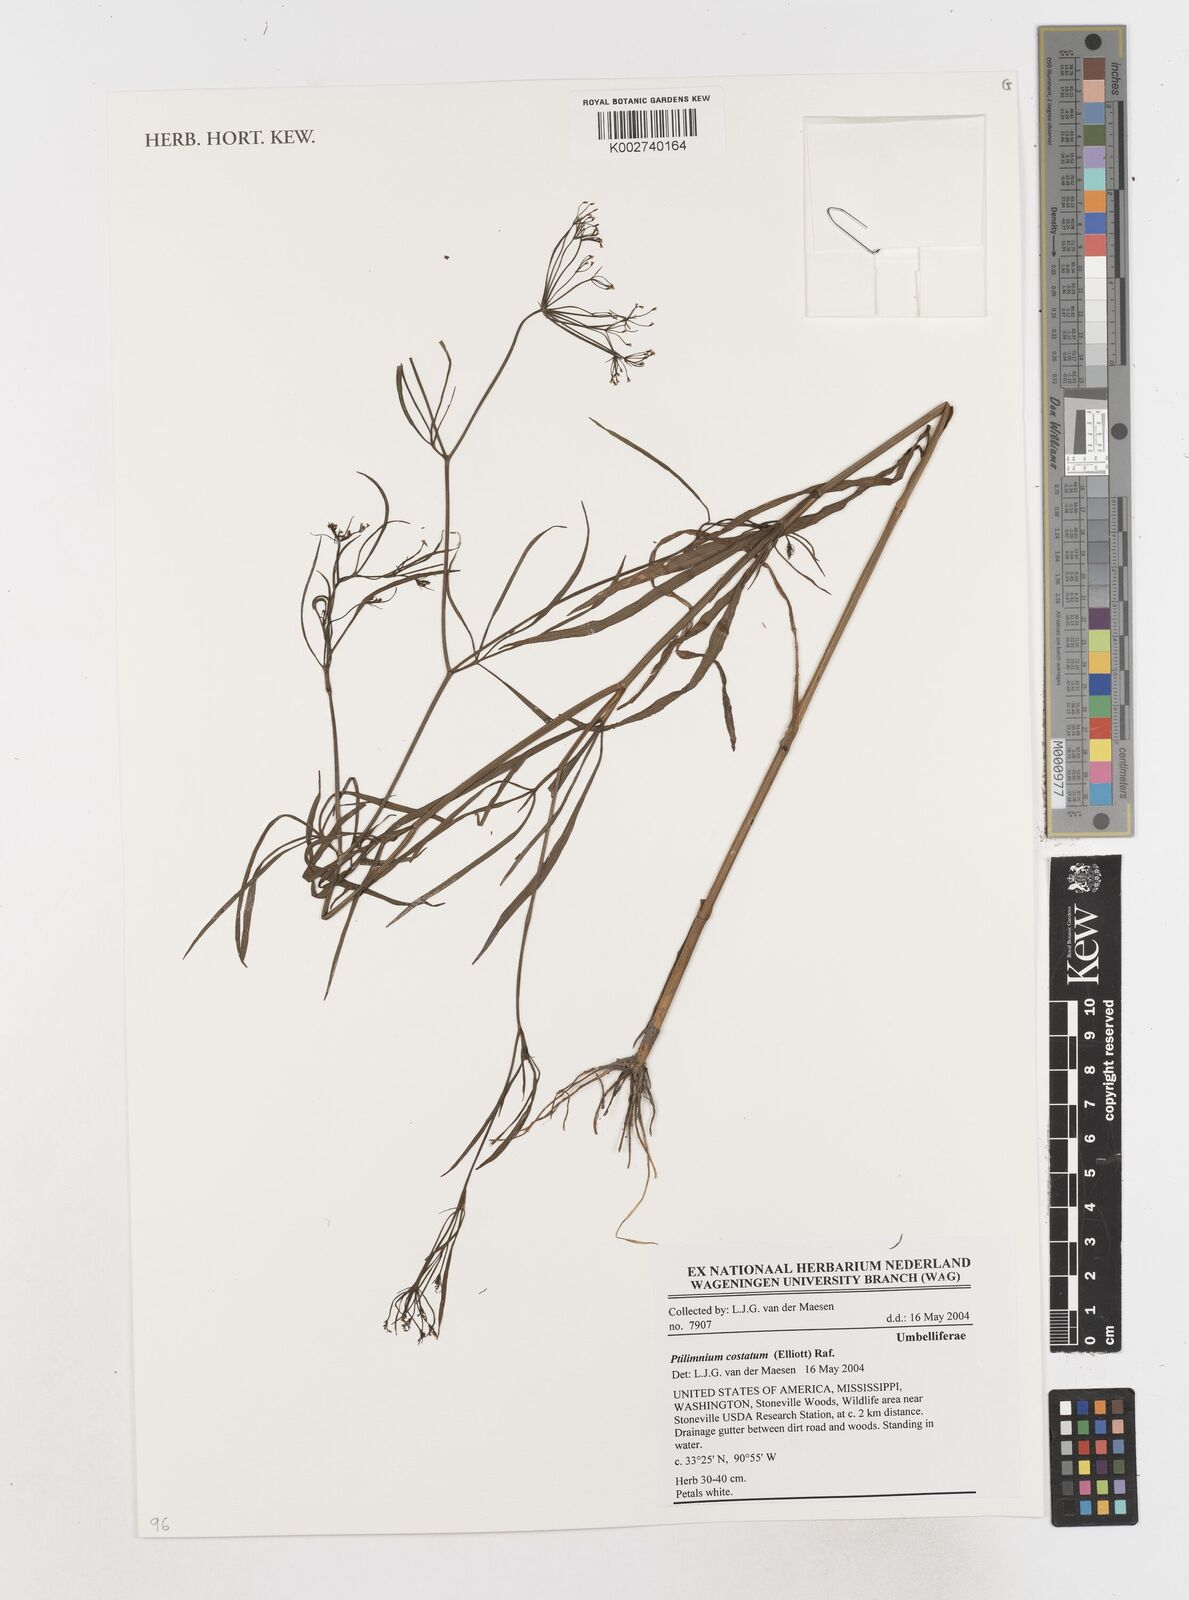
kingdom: Plantae
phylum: Tracheophyta
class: Magnoliopsida
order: Apiales
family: Apiaceae
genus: Ptilimnium
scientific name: Ptilimnium costatum
